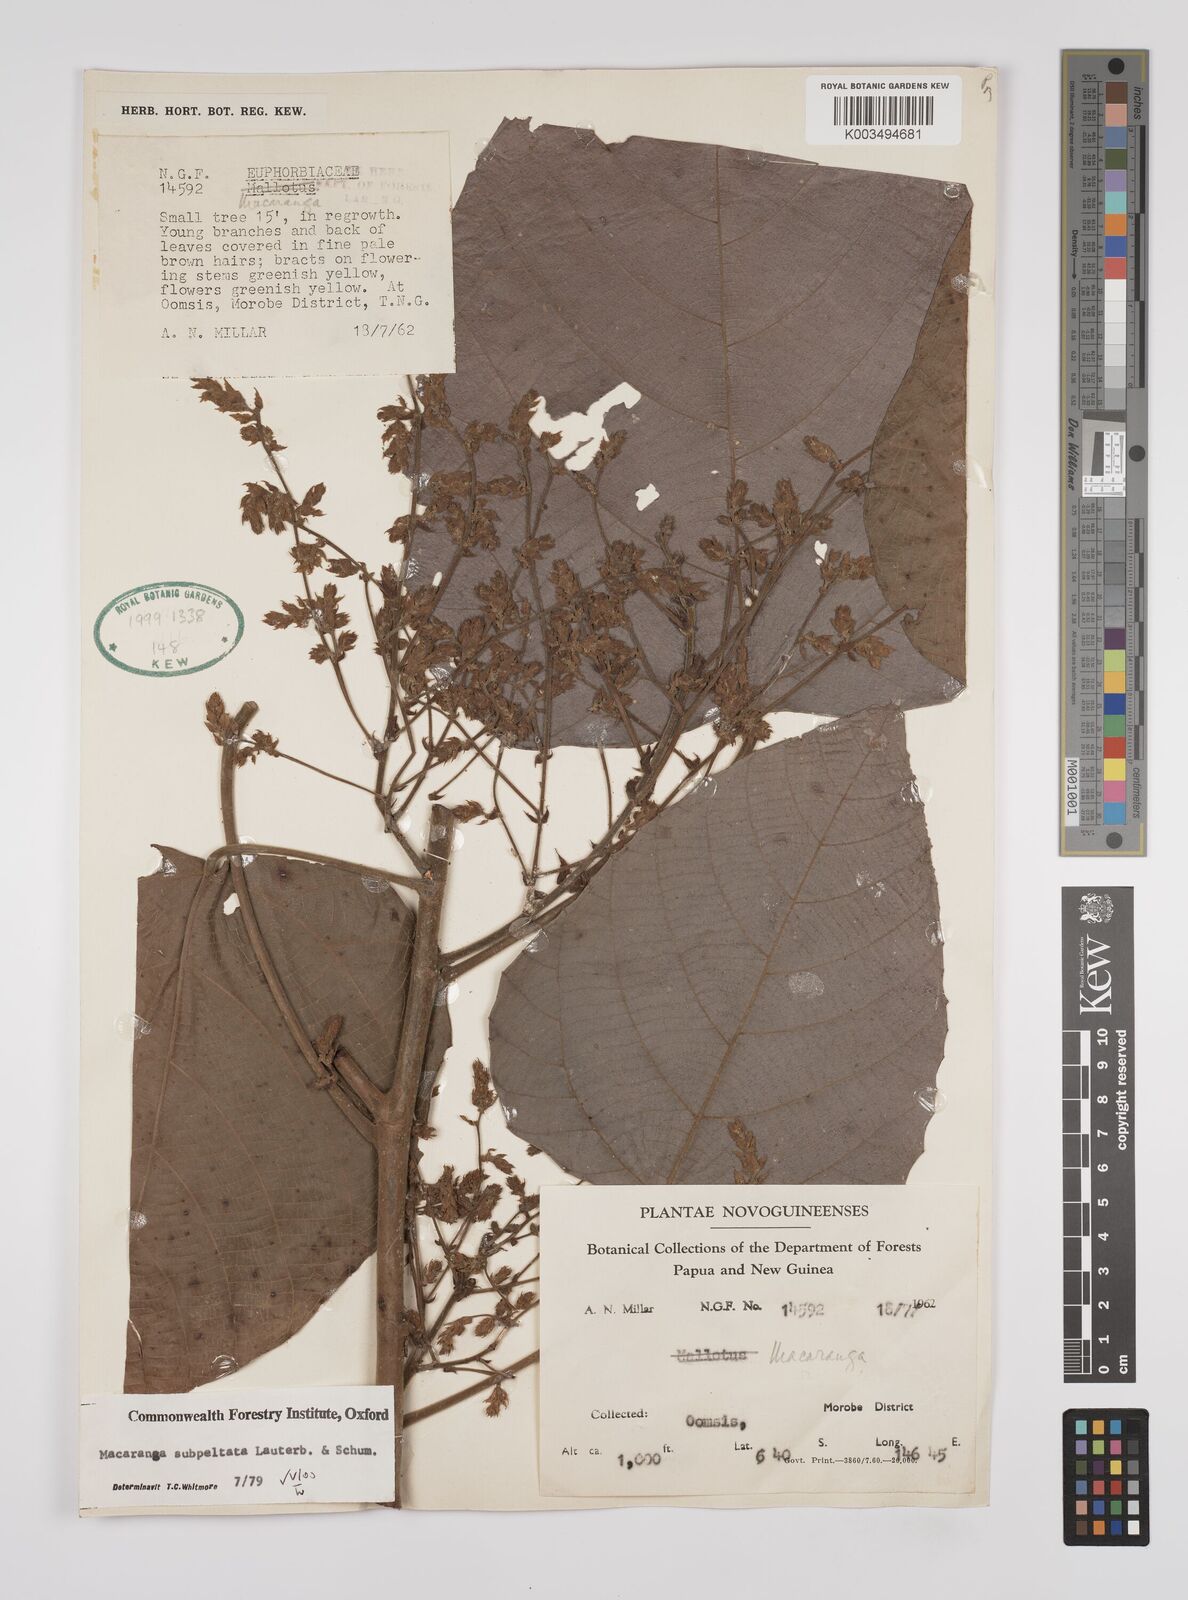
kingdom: Plantae
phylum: Tracheophyta
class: Magnoliopsida
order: Malpighiales
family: Euphorbiaceae
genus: Macaranga
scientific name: Macaranga subpeltata
